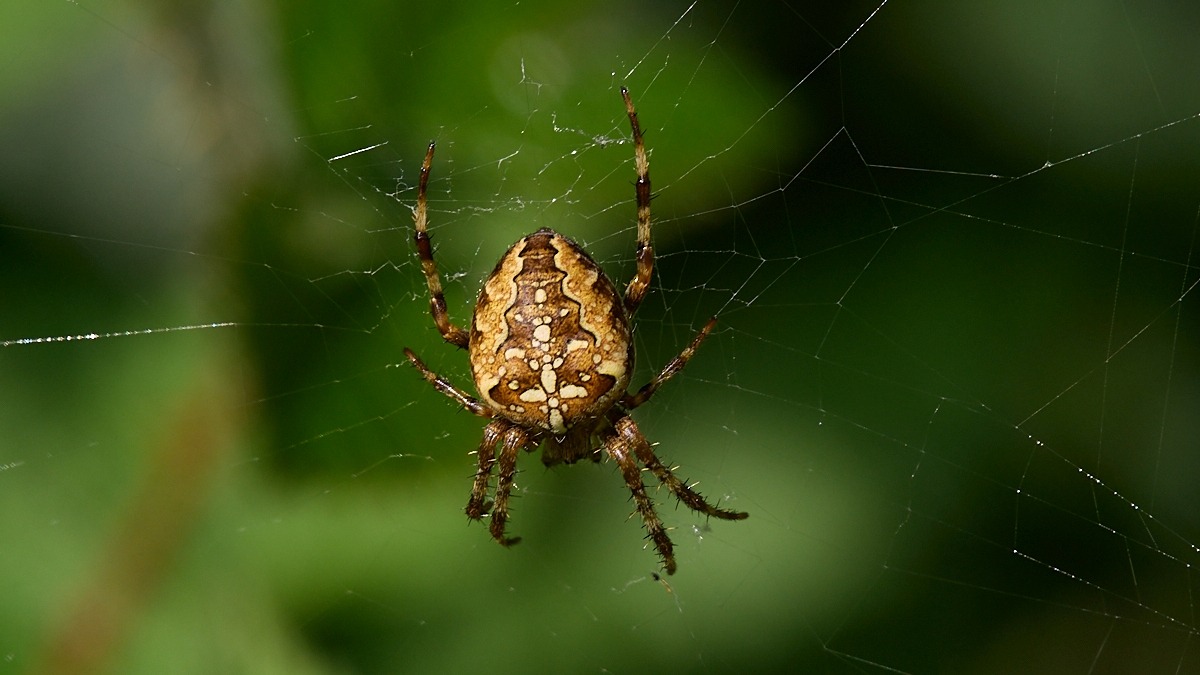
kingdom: Animalia
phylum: Arthropoda
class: Arachnida
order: Araneae
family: Araneidae
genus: Araneus
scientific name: Araneus diadematus
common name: Korsedderkop
